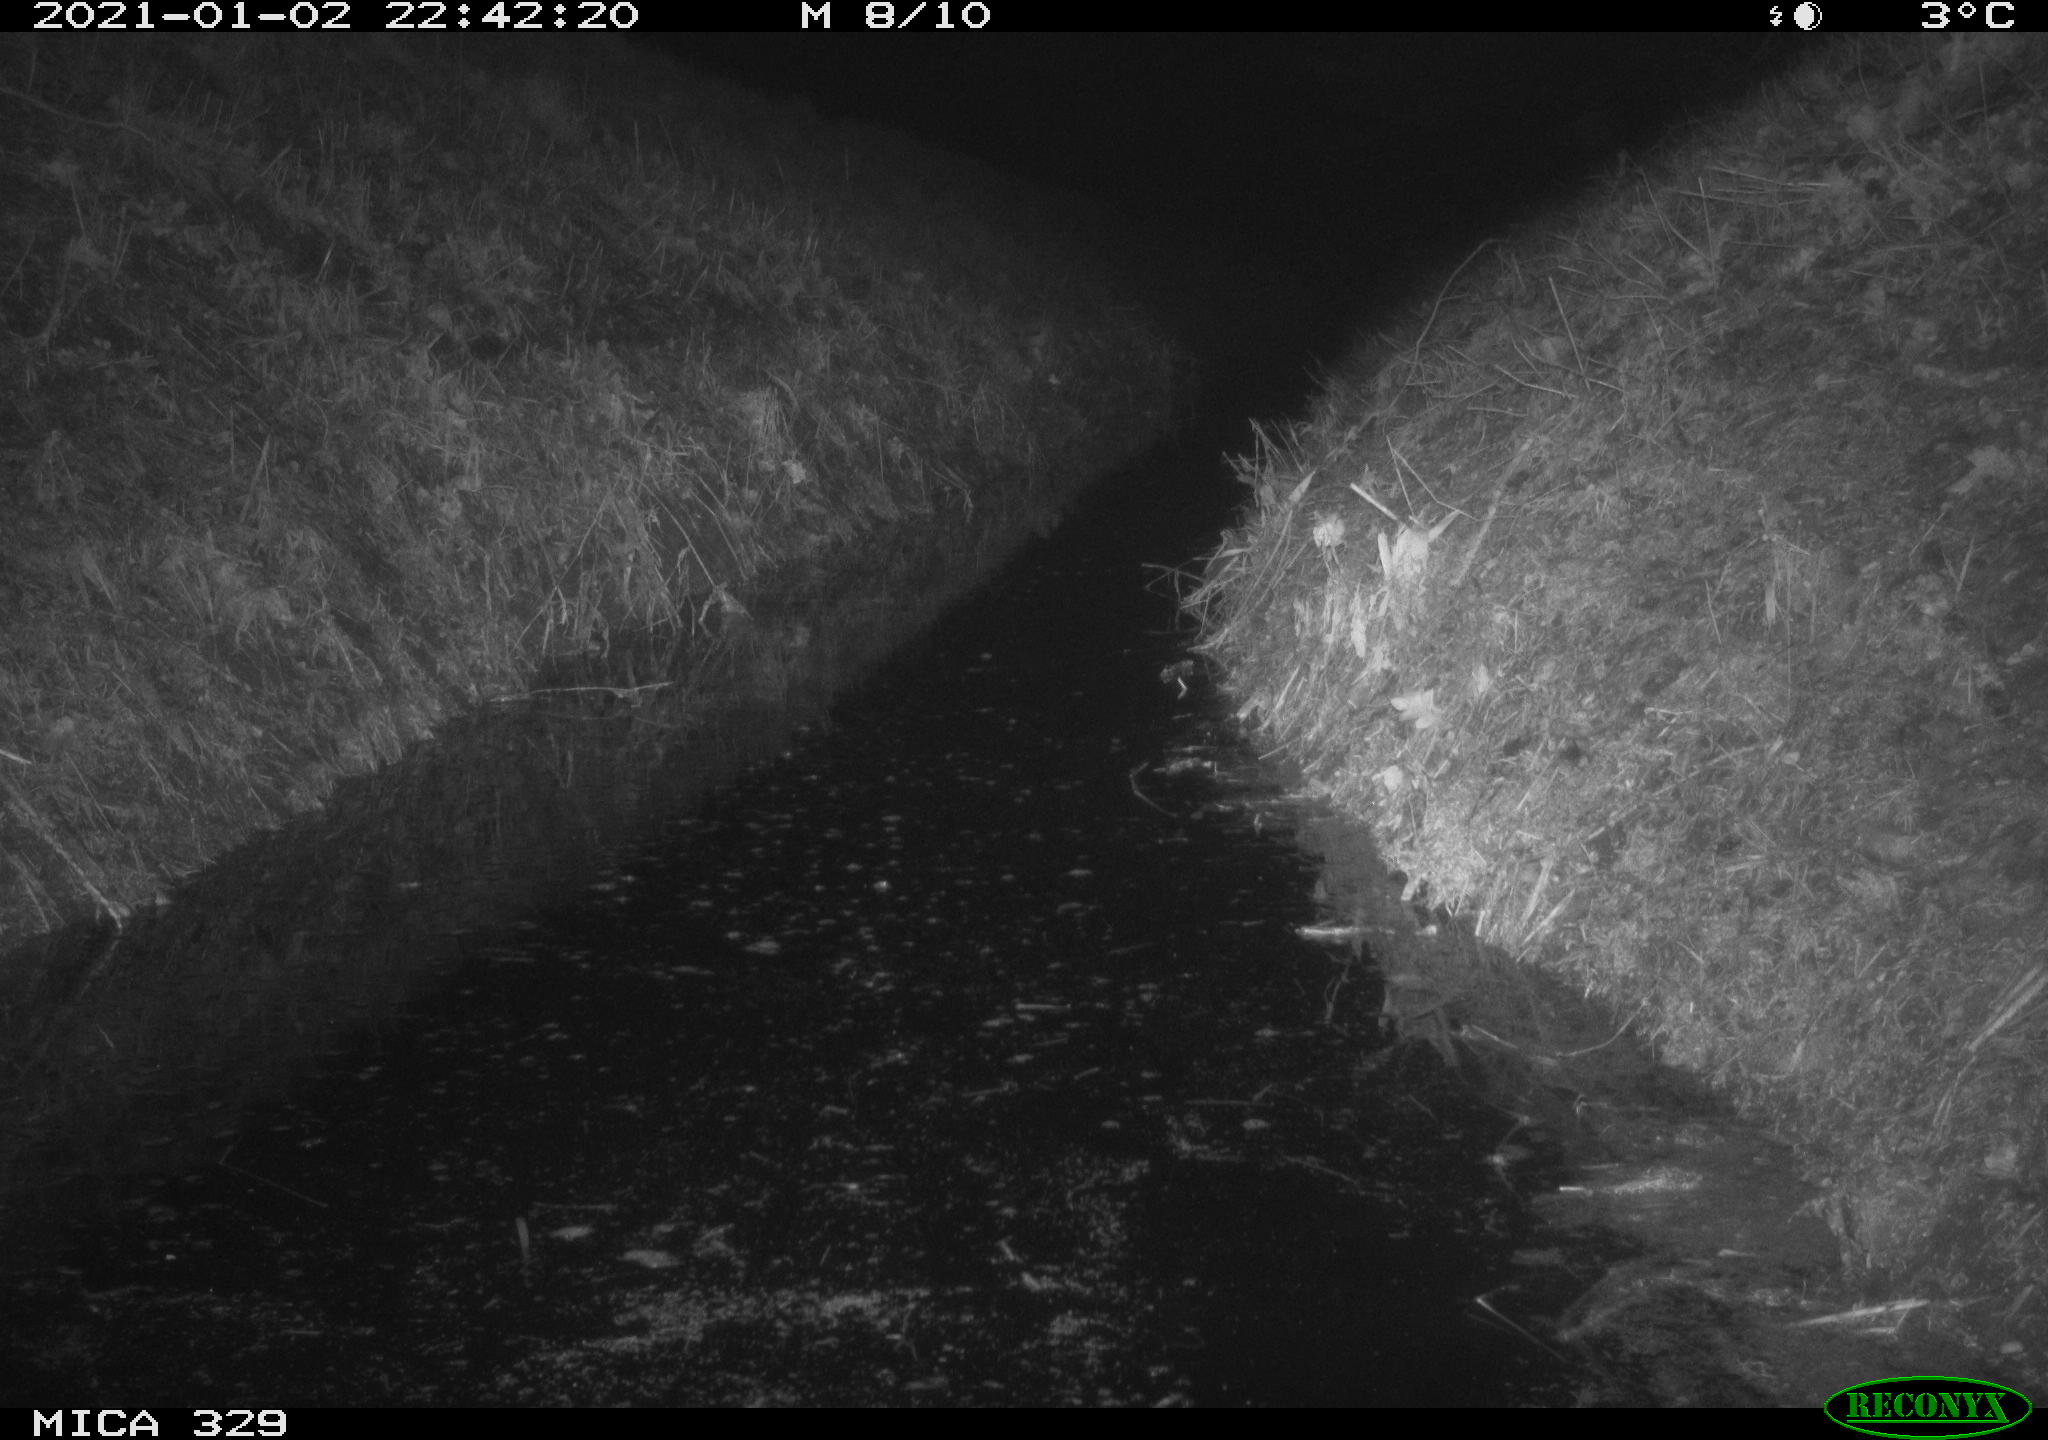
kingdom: Animalia
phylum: Chordata
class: Mammalia
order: Rodentia
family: Muridae
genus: Rattus
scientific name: Rattus norvegicus
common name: Brown rat
